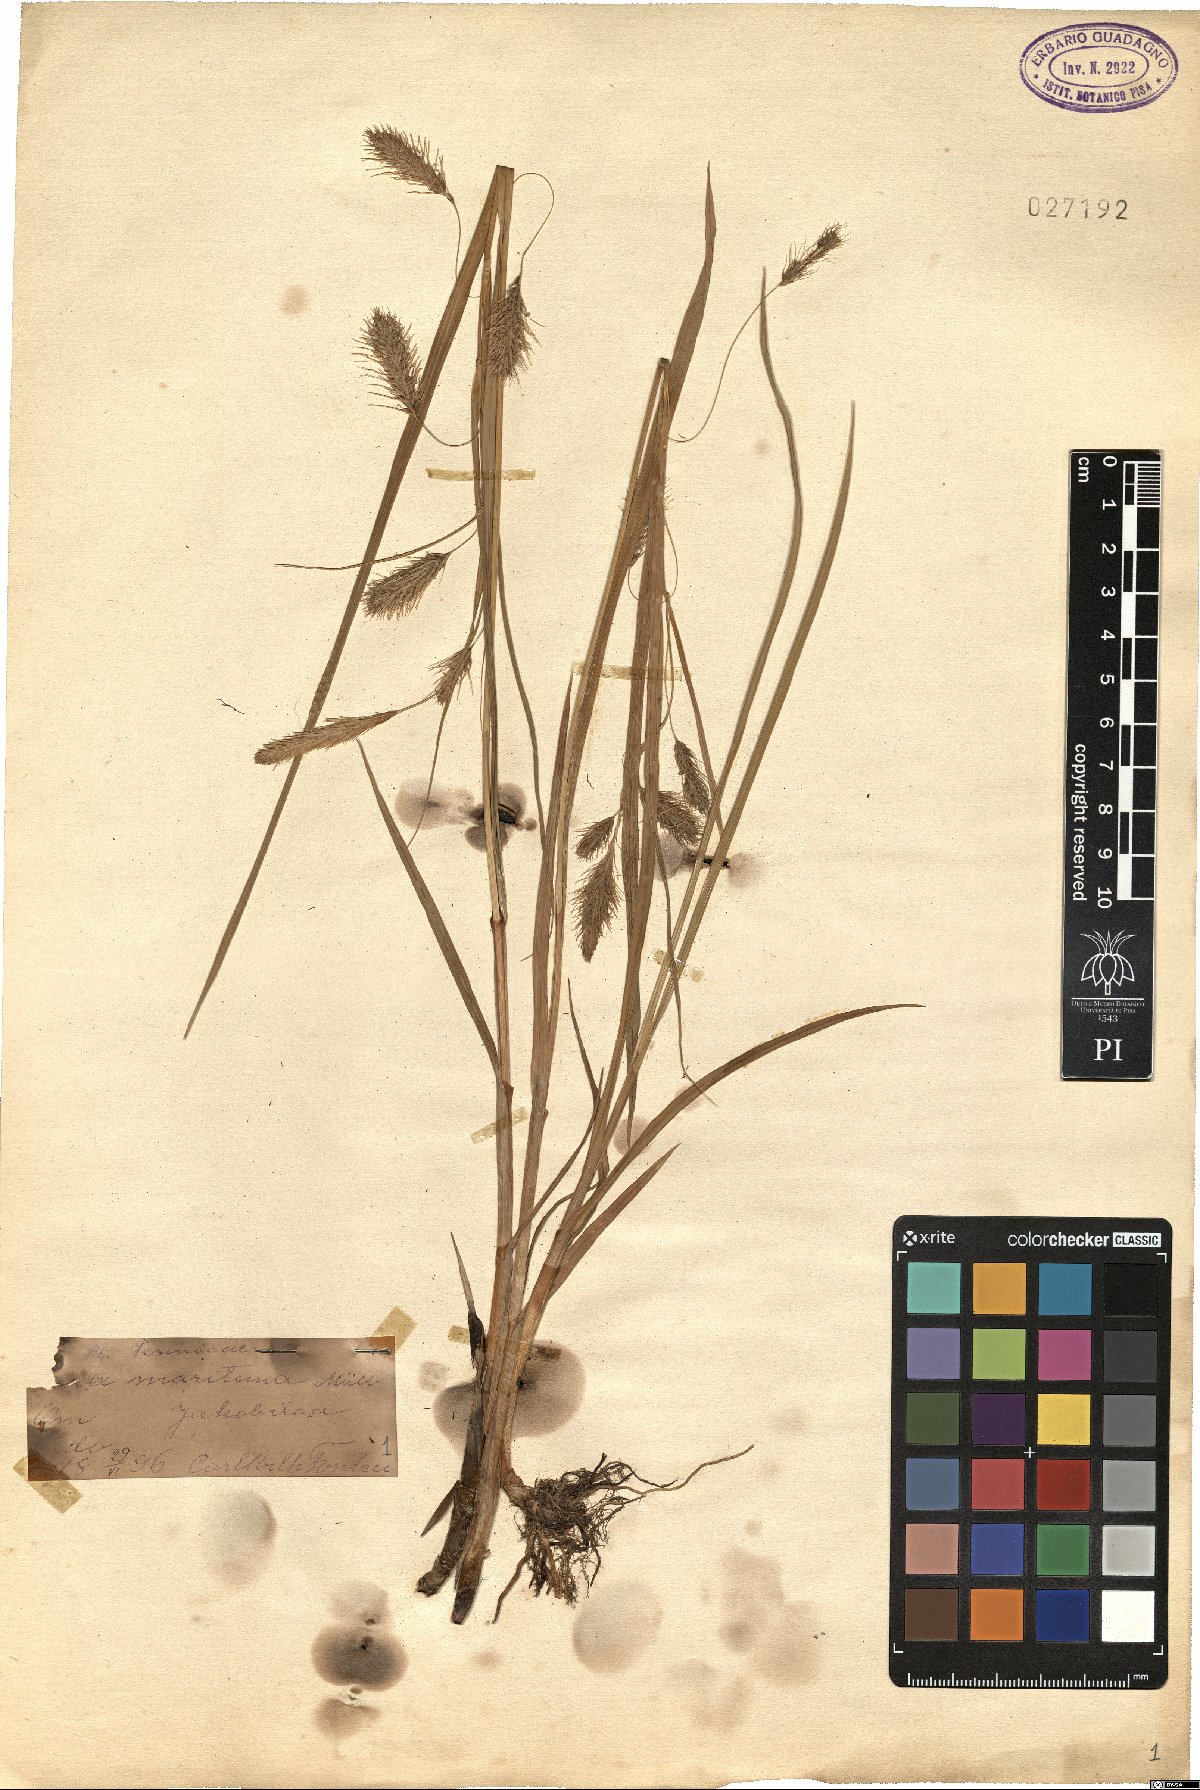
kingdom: Plantae
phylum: Tracheophyta
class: Liliopsida
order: Poales
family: Cyperaceae
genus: Carex
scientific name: Carex maritima
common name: Curved sedge
